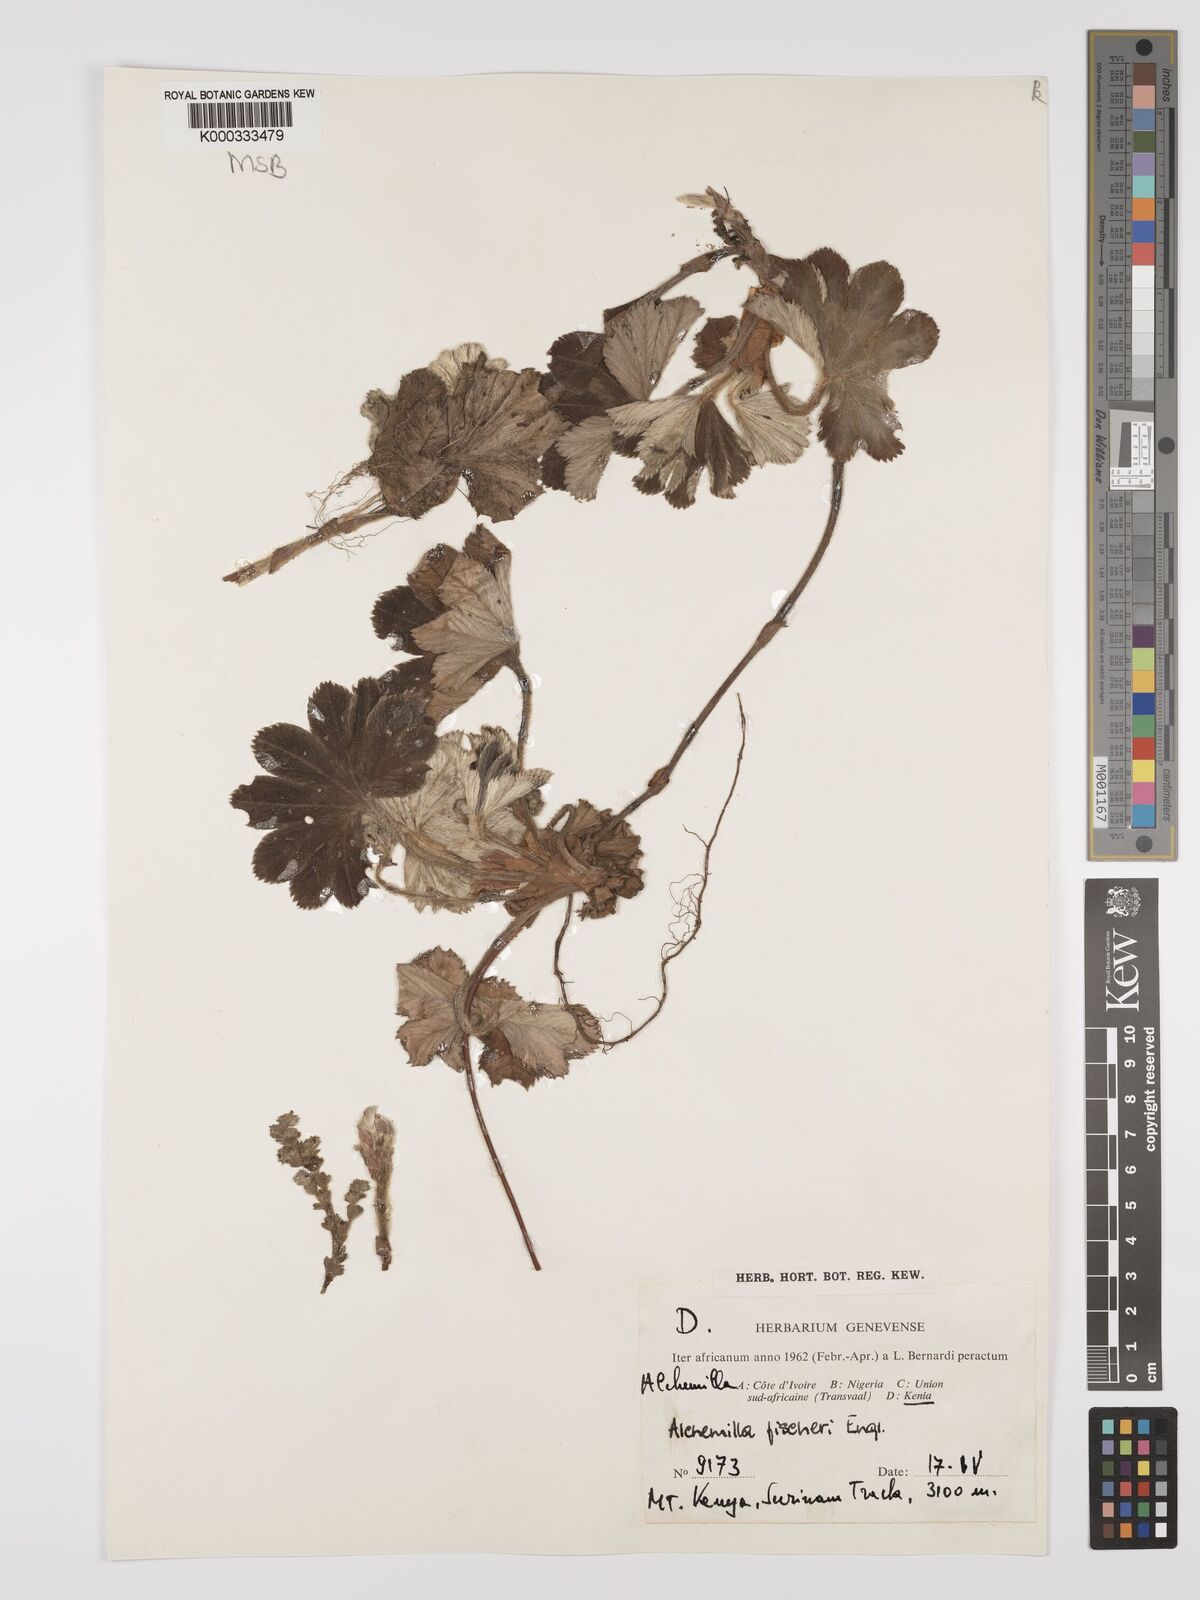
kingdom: Plantae
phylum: Tracheophyta
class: Magnoliopsida
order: Rosales
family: Rosaceae
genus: Alchemilla
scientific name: Alchemilla fischeri
